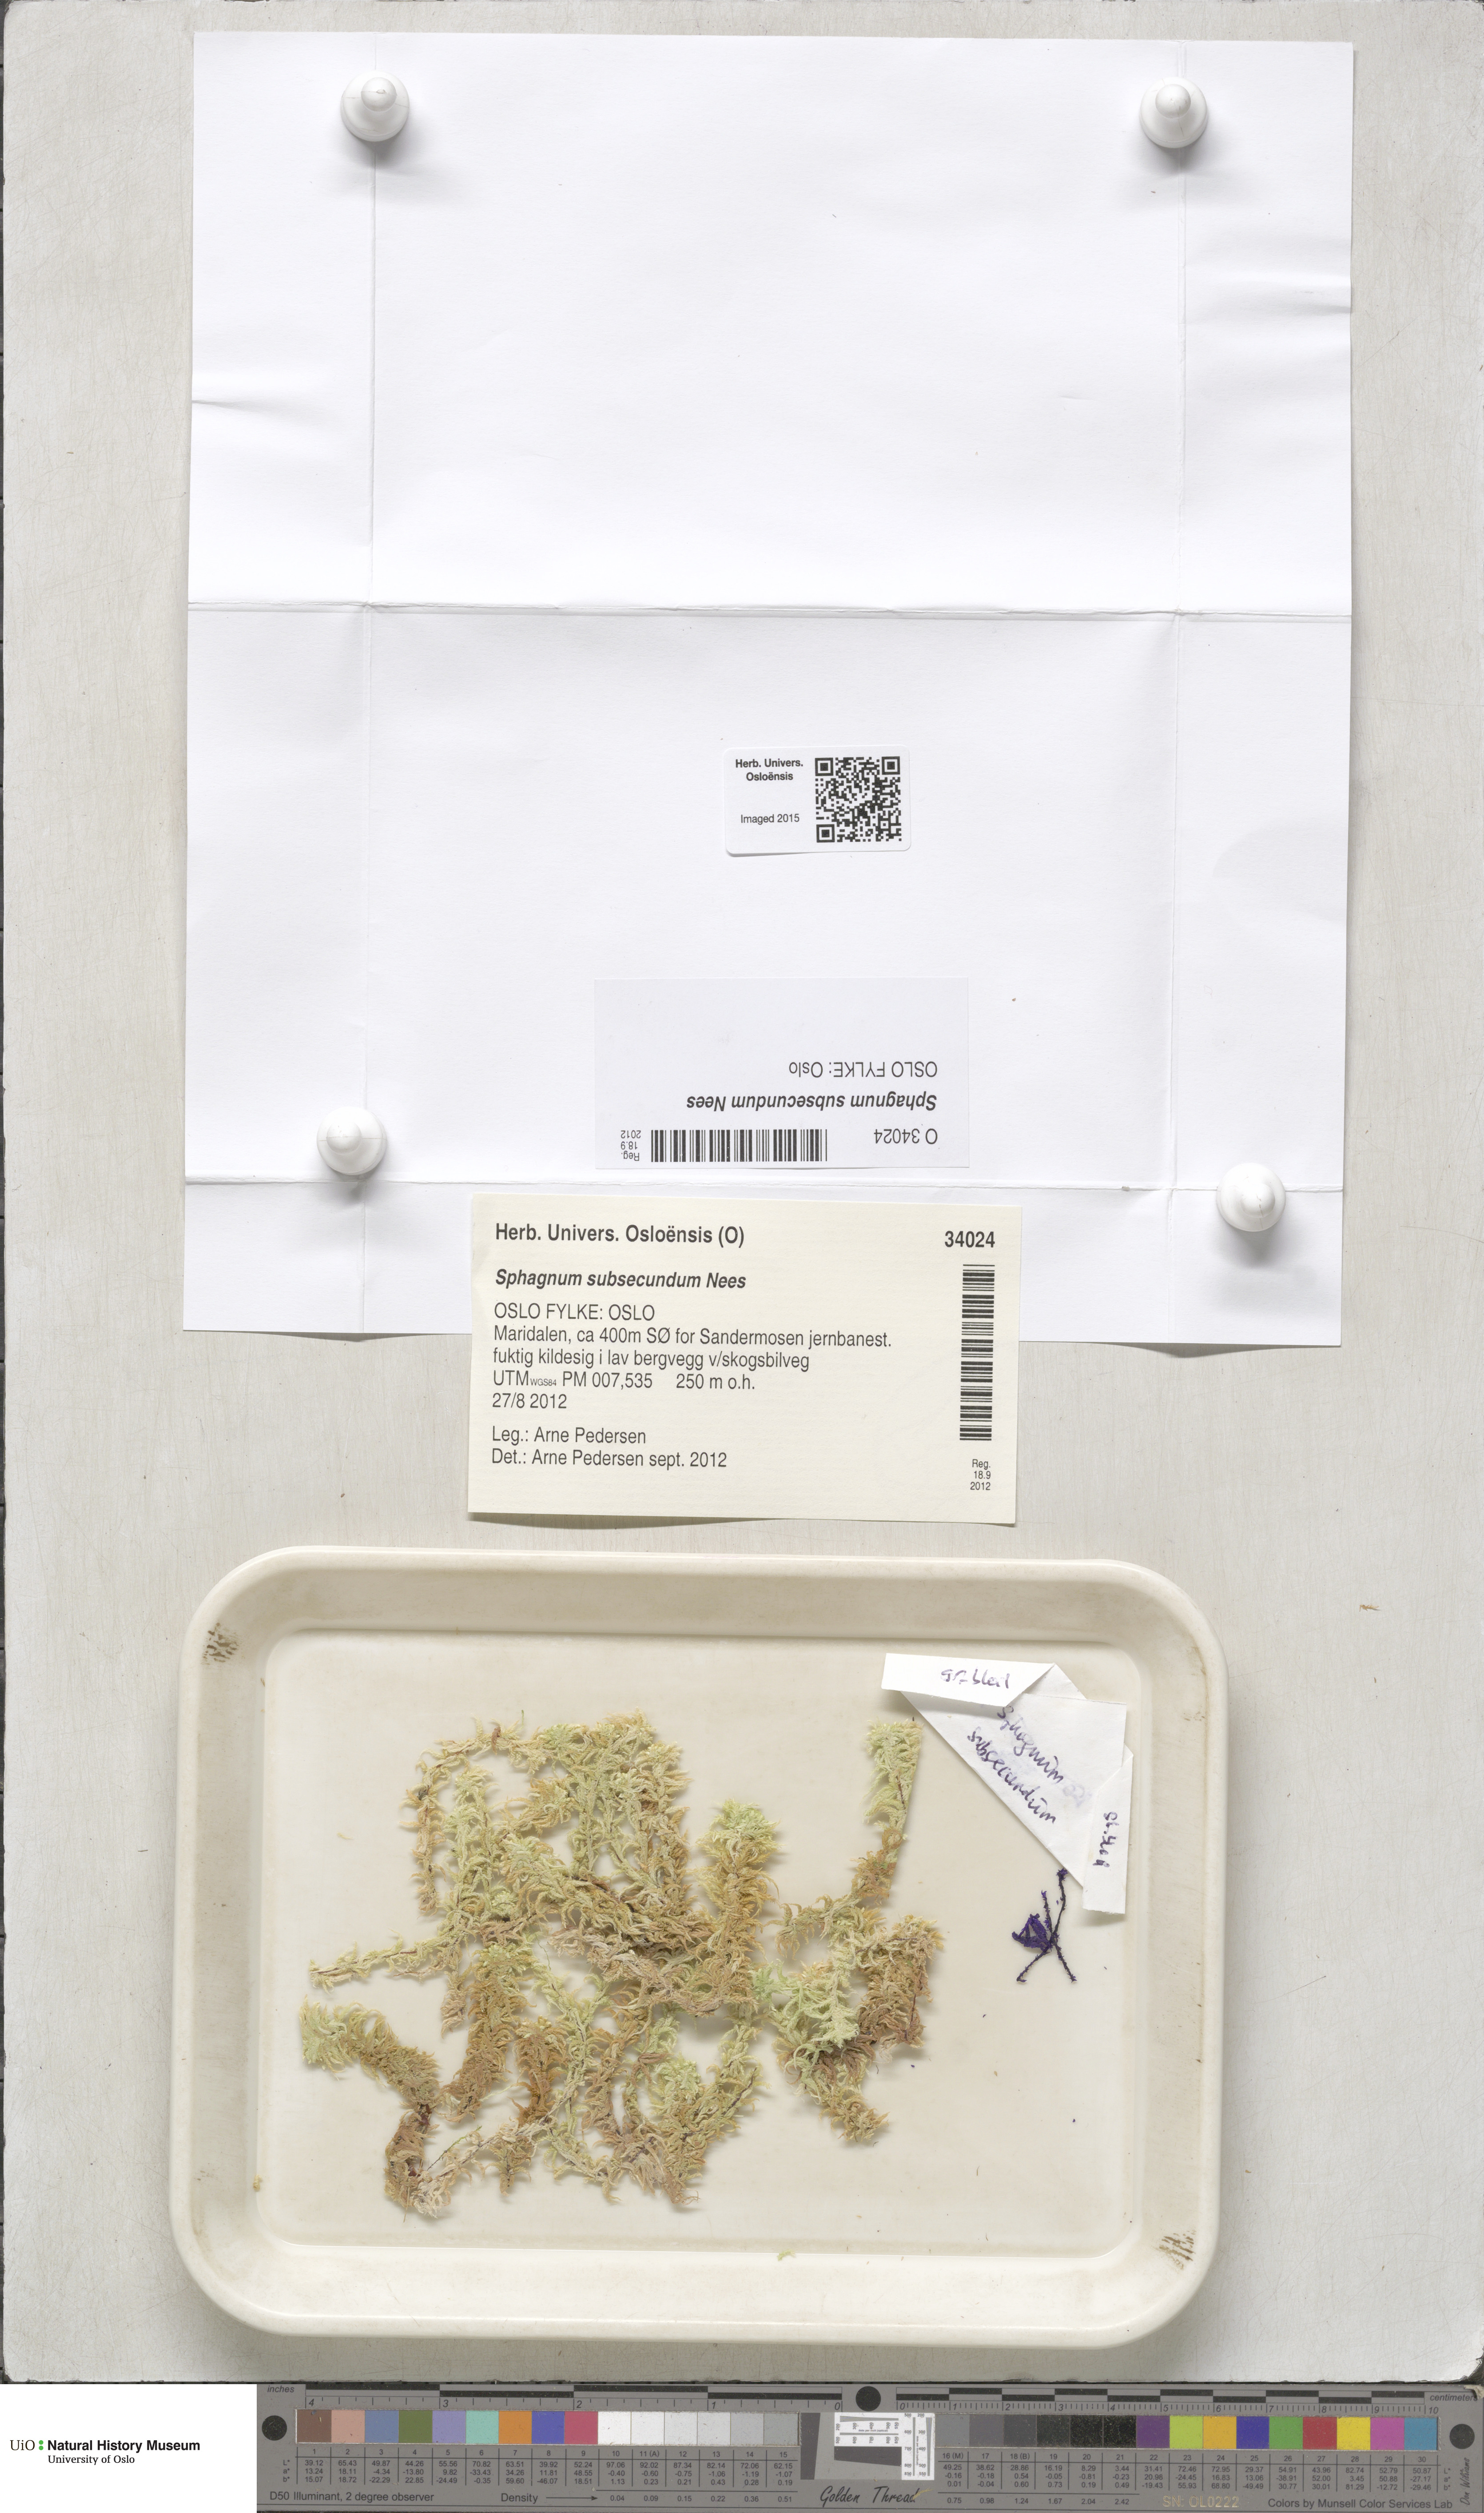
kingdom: Plantae
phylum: Bryophyta
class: Sphagnopsida
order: Sphagnales
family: Sphagnaceae
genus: Sphagnum
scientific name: Sphagnum subsecundum
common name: Orange peat moss
